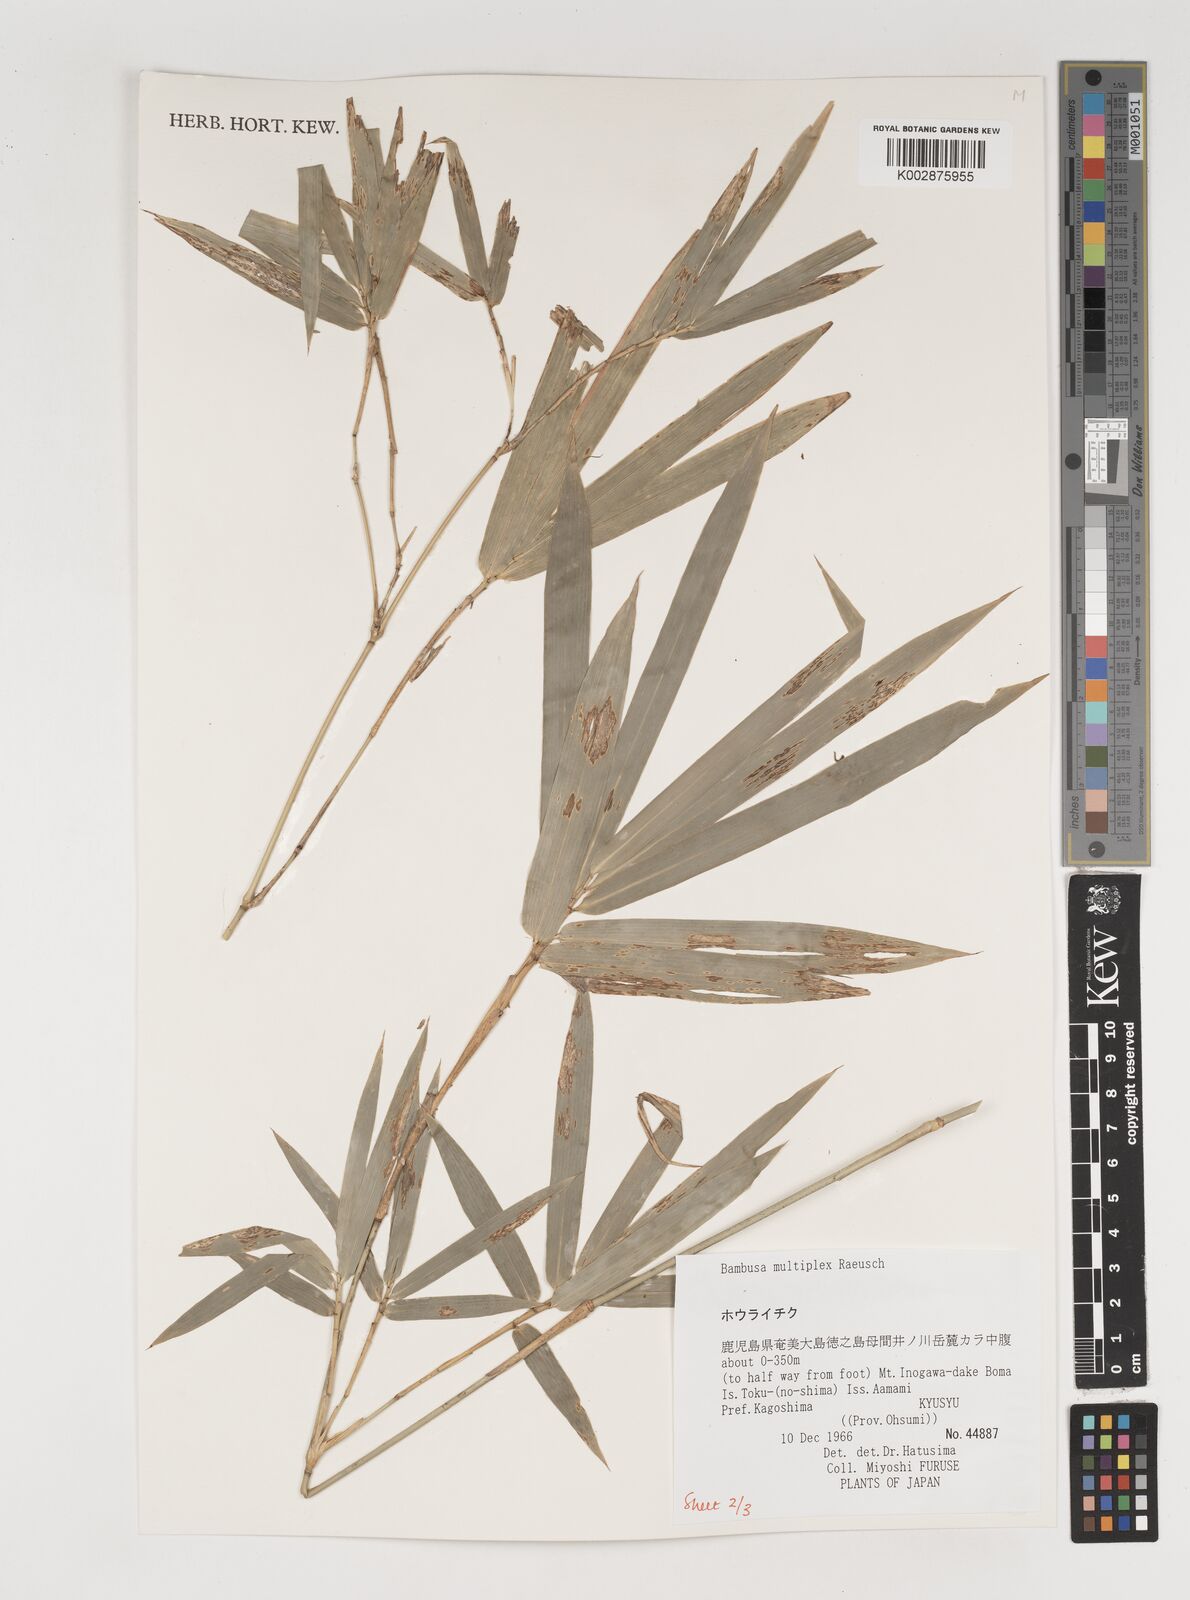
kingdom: Plantae
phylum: Tracheophyta
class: Liliopsida
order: Poales
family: Poaceae
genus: Bambusa
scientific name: Bambusa multiplex
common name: Hedge bamboo
